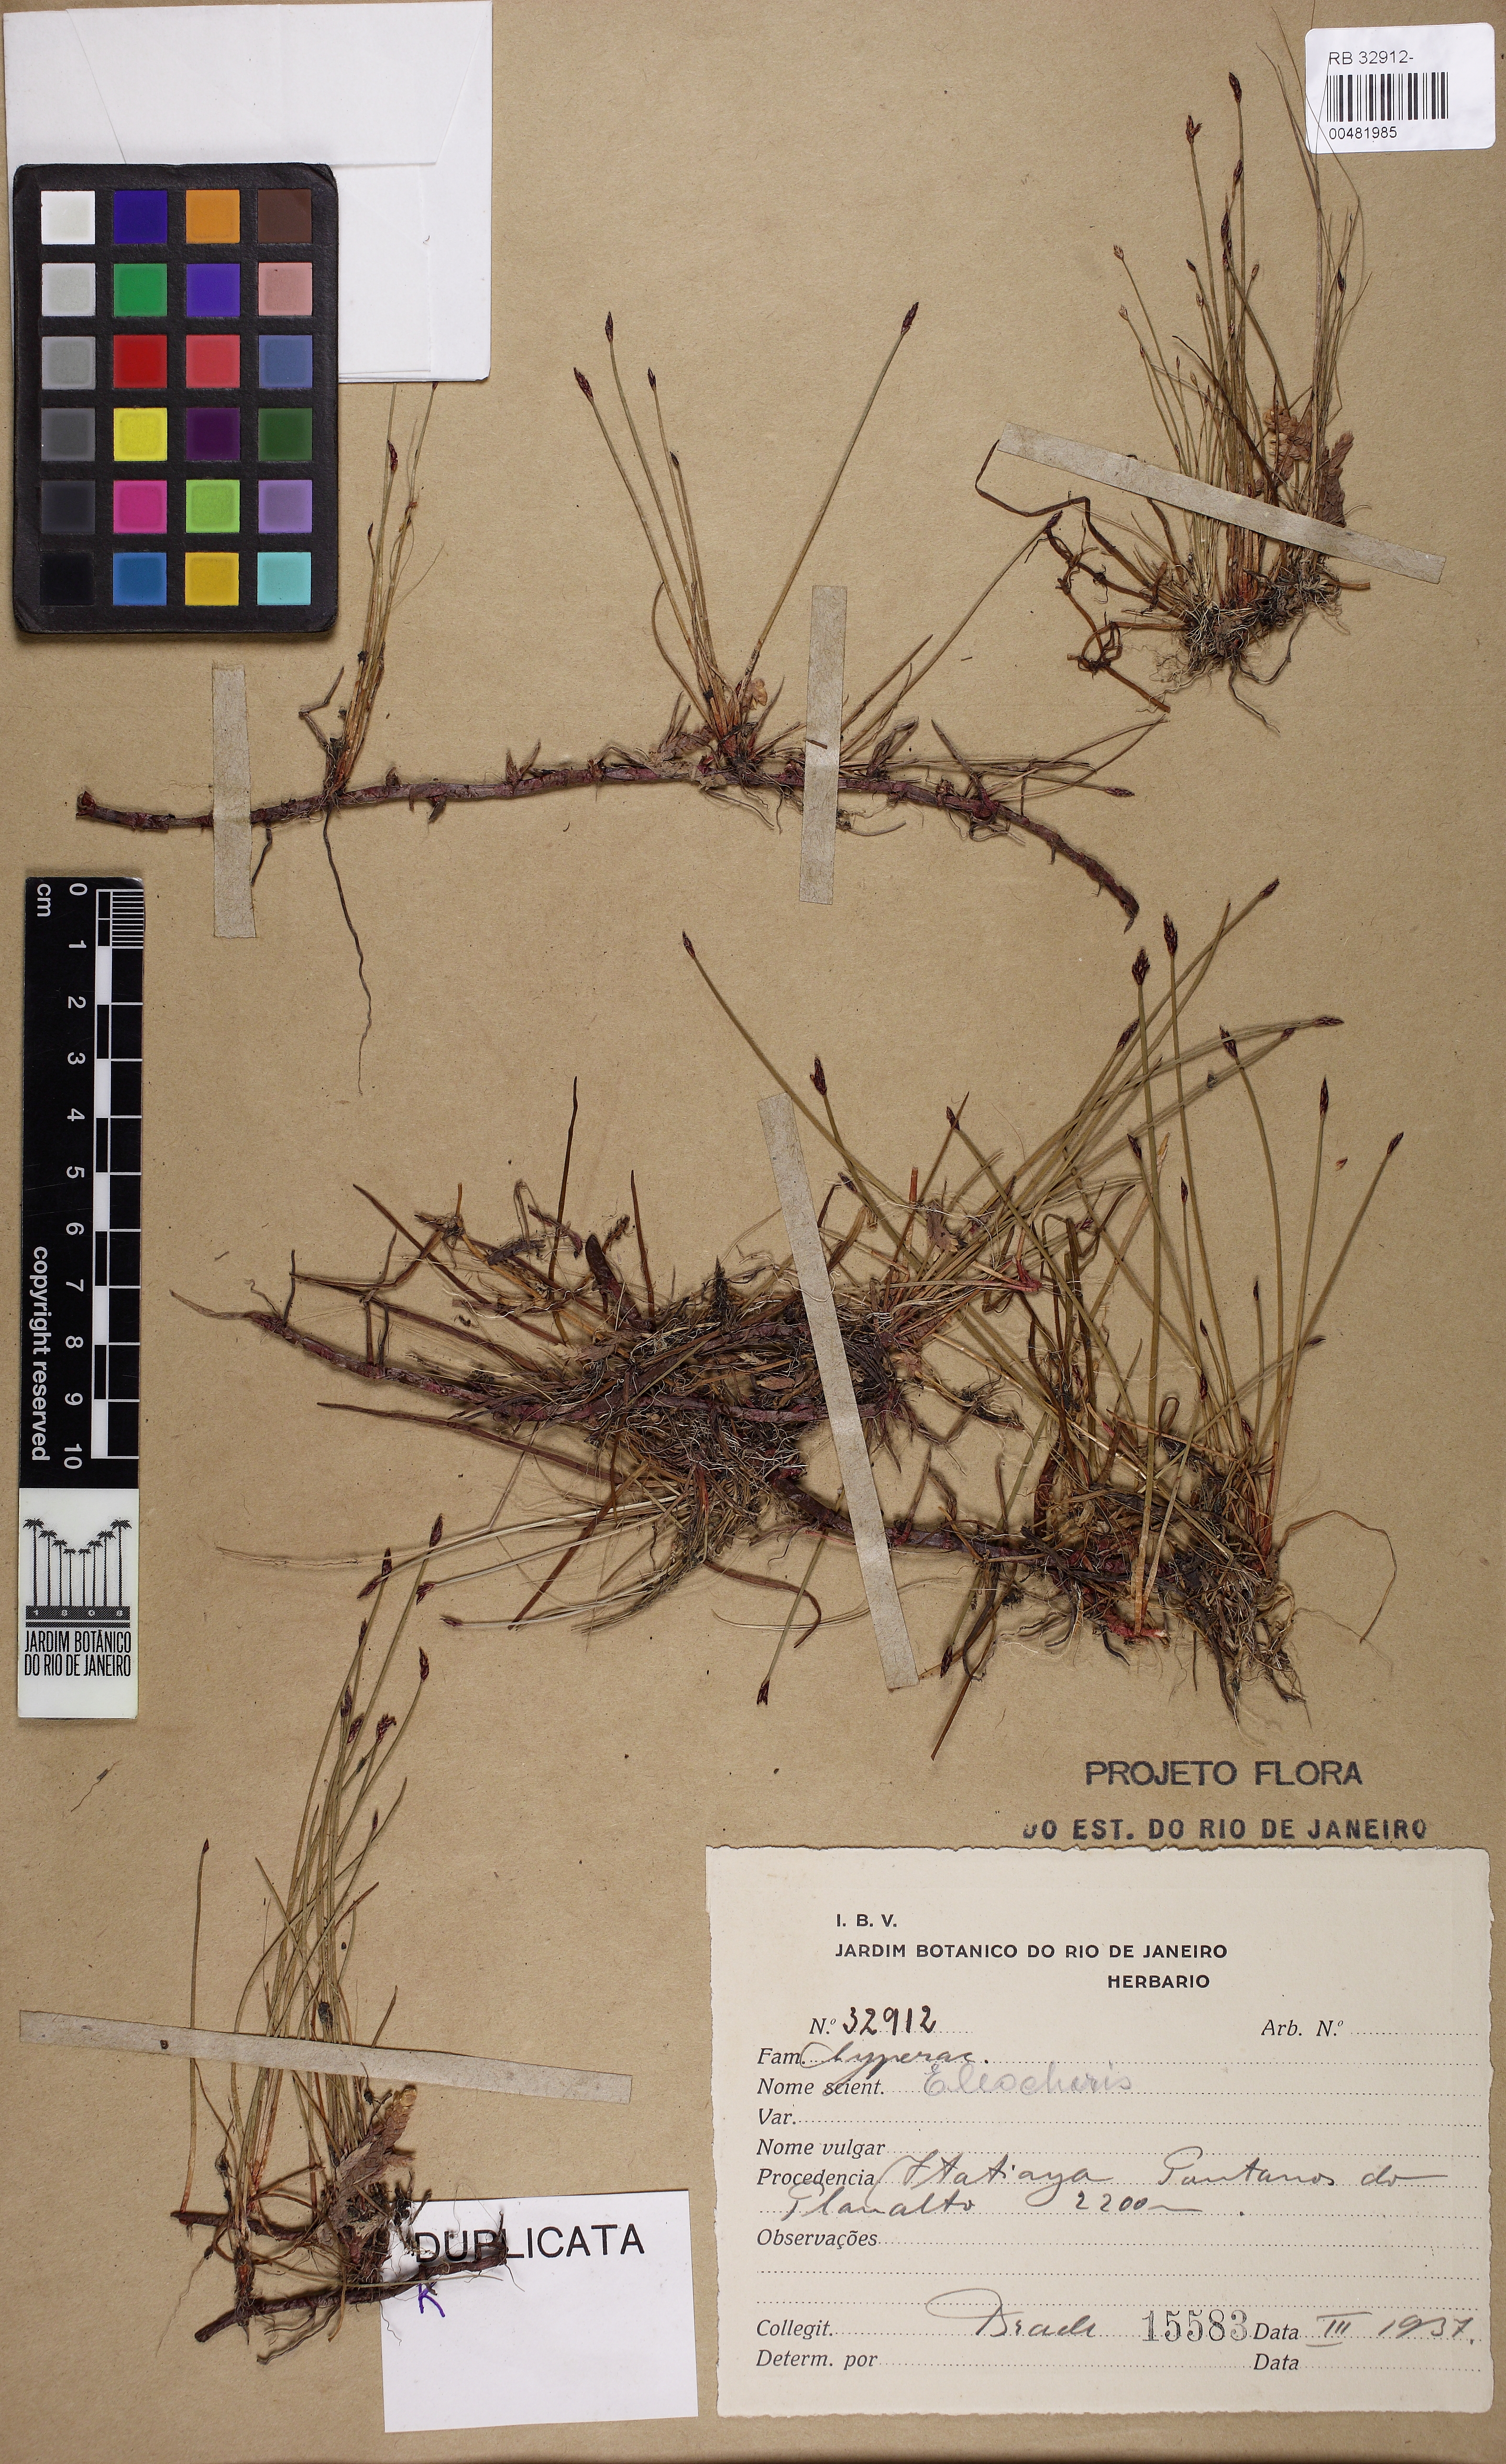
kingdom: Plantae
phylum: Tracheophyta
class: Liliopsida
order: Poales
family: Cyperaceae
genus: Eleocharis
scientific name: Eleocharis subarticulata
